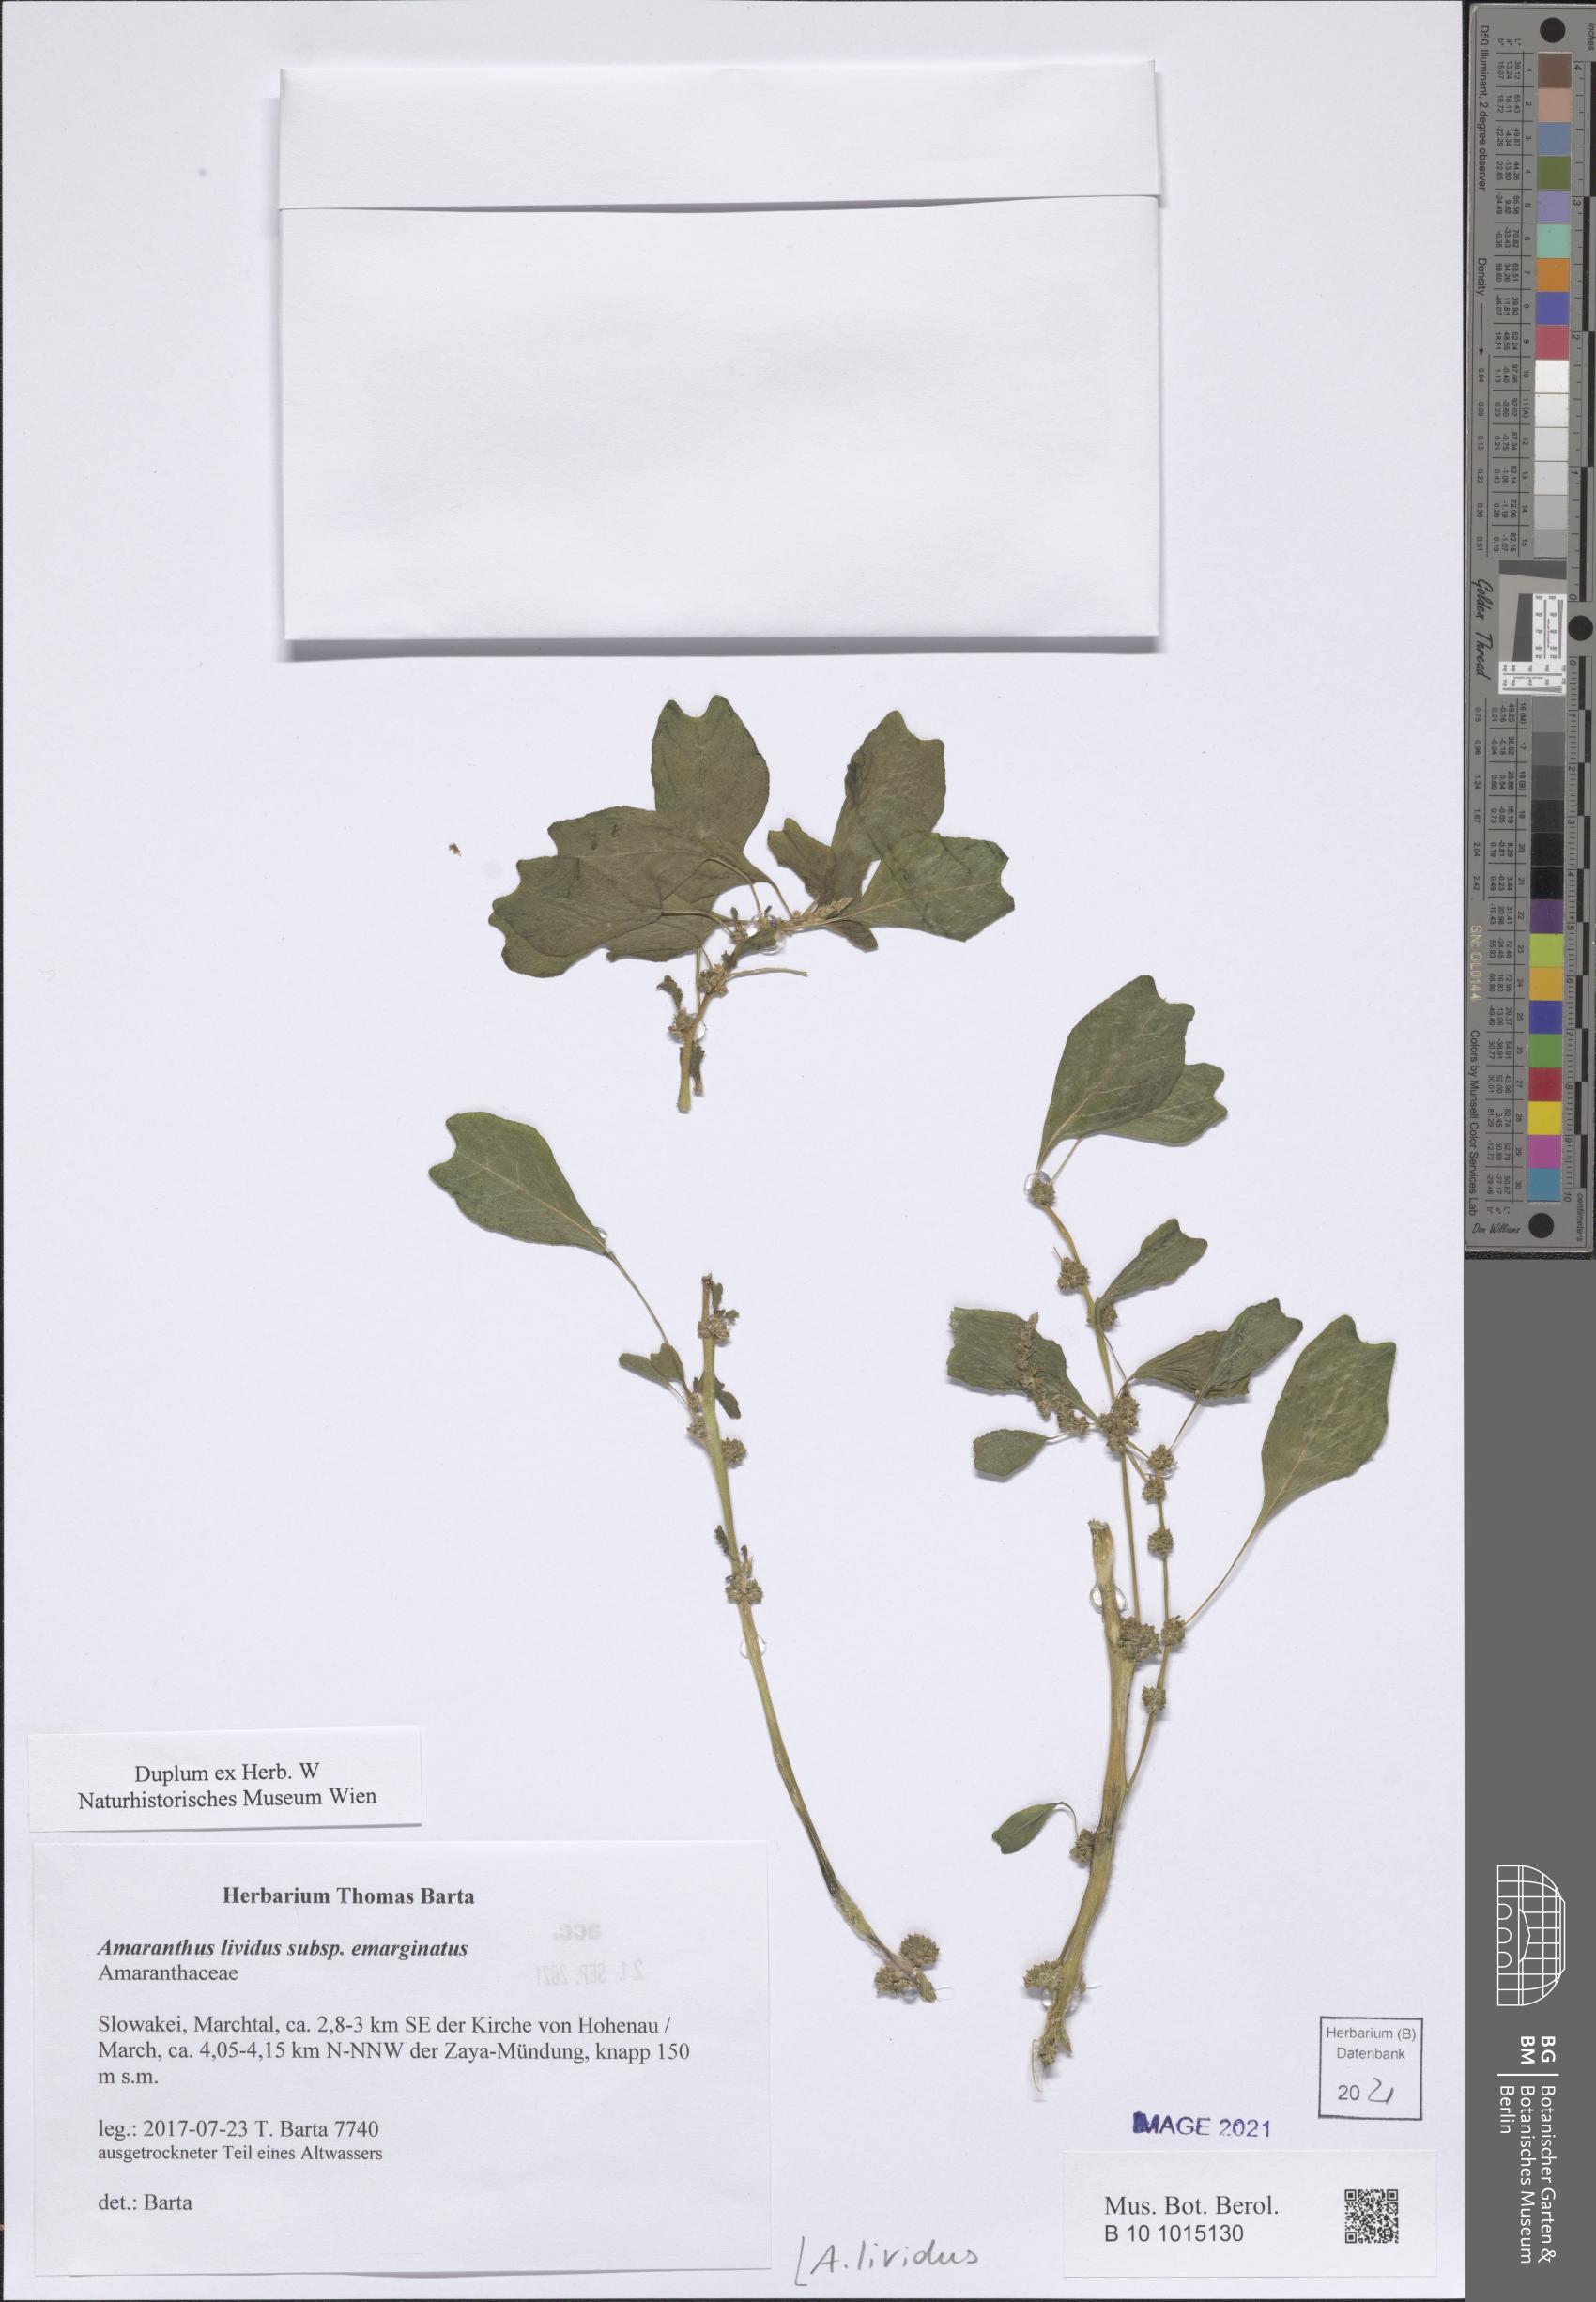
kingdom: Plantae
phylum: Tracheophyta
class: Magnoliopsida
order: Caryophyllales
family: Amaranthaceae
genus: Amaranthus
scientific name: Amaranthus blitum
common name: Purple amaranth
